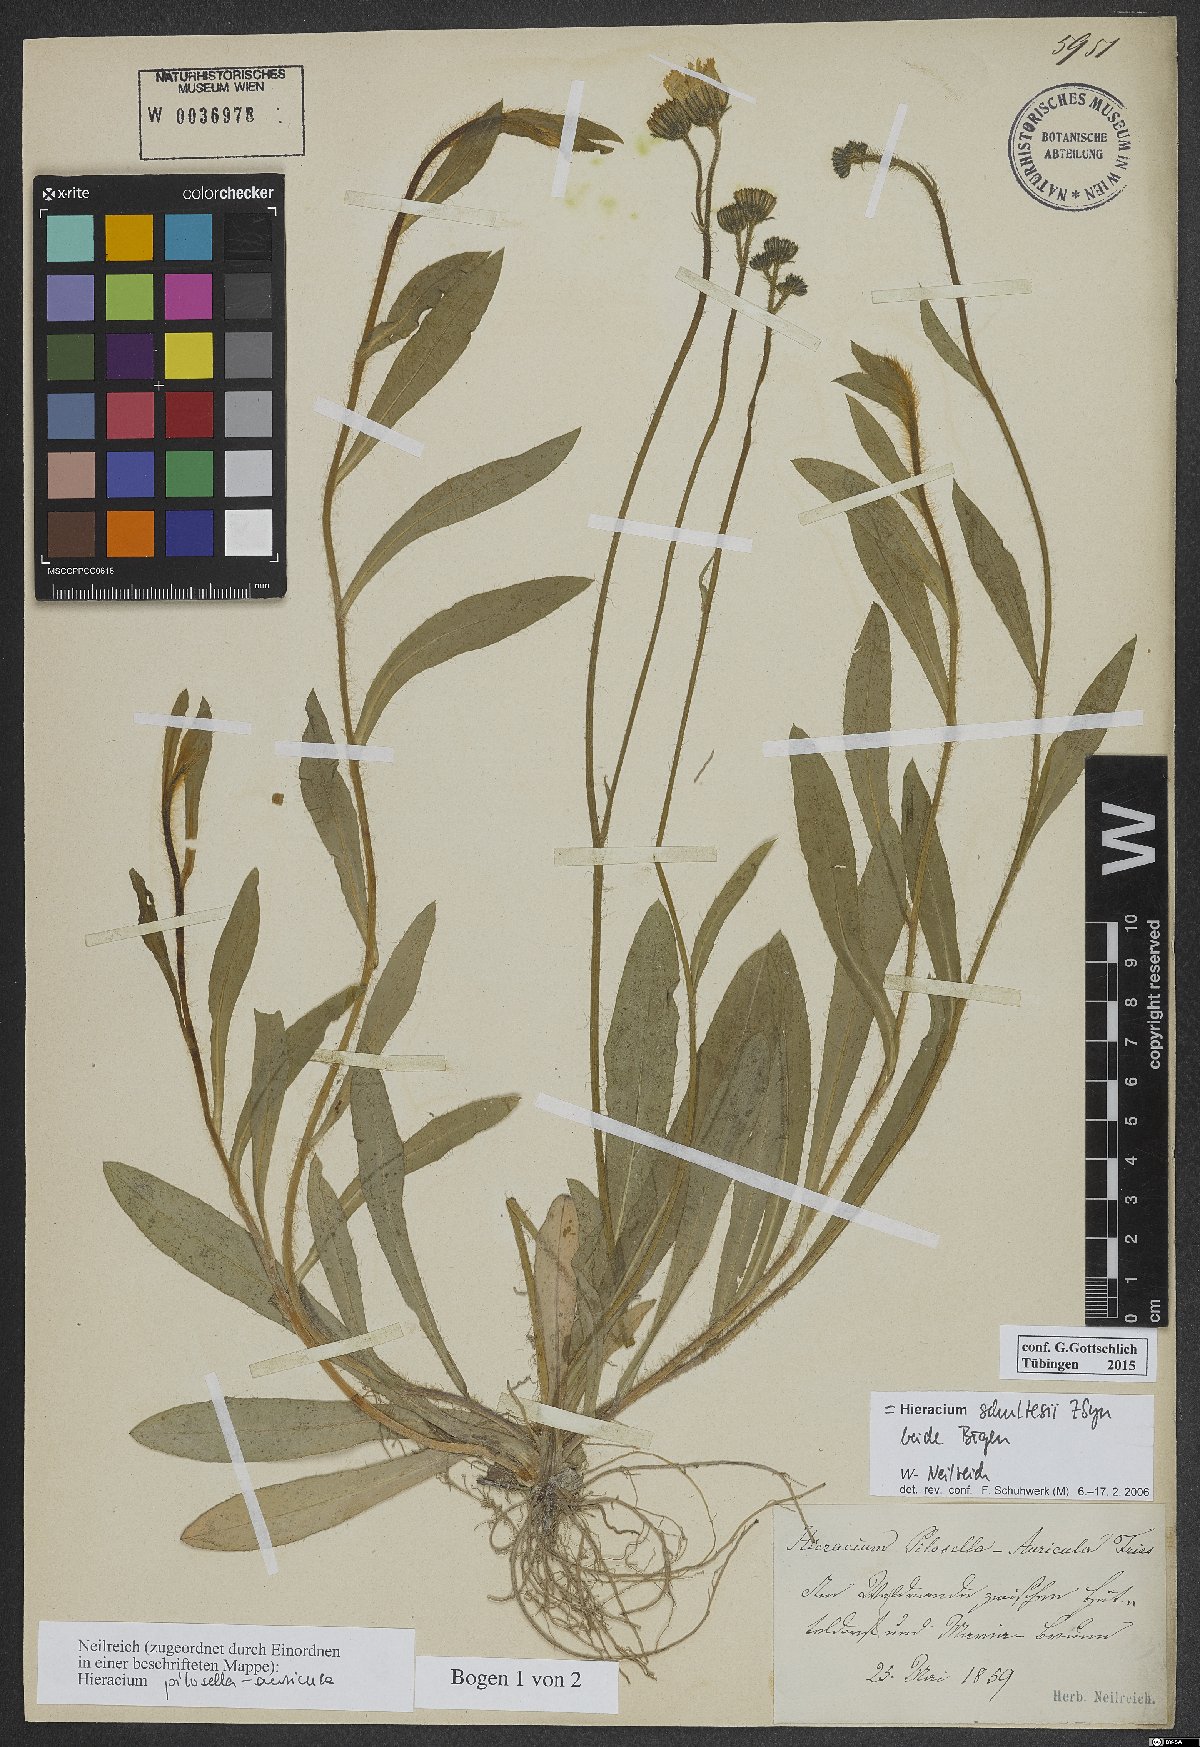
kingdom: Plantae
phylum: Tracheophyta
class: Magnoliopsida
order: Asterales
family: Asteraceae
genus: Pilosella
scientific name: Pilosella schultesii
